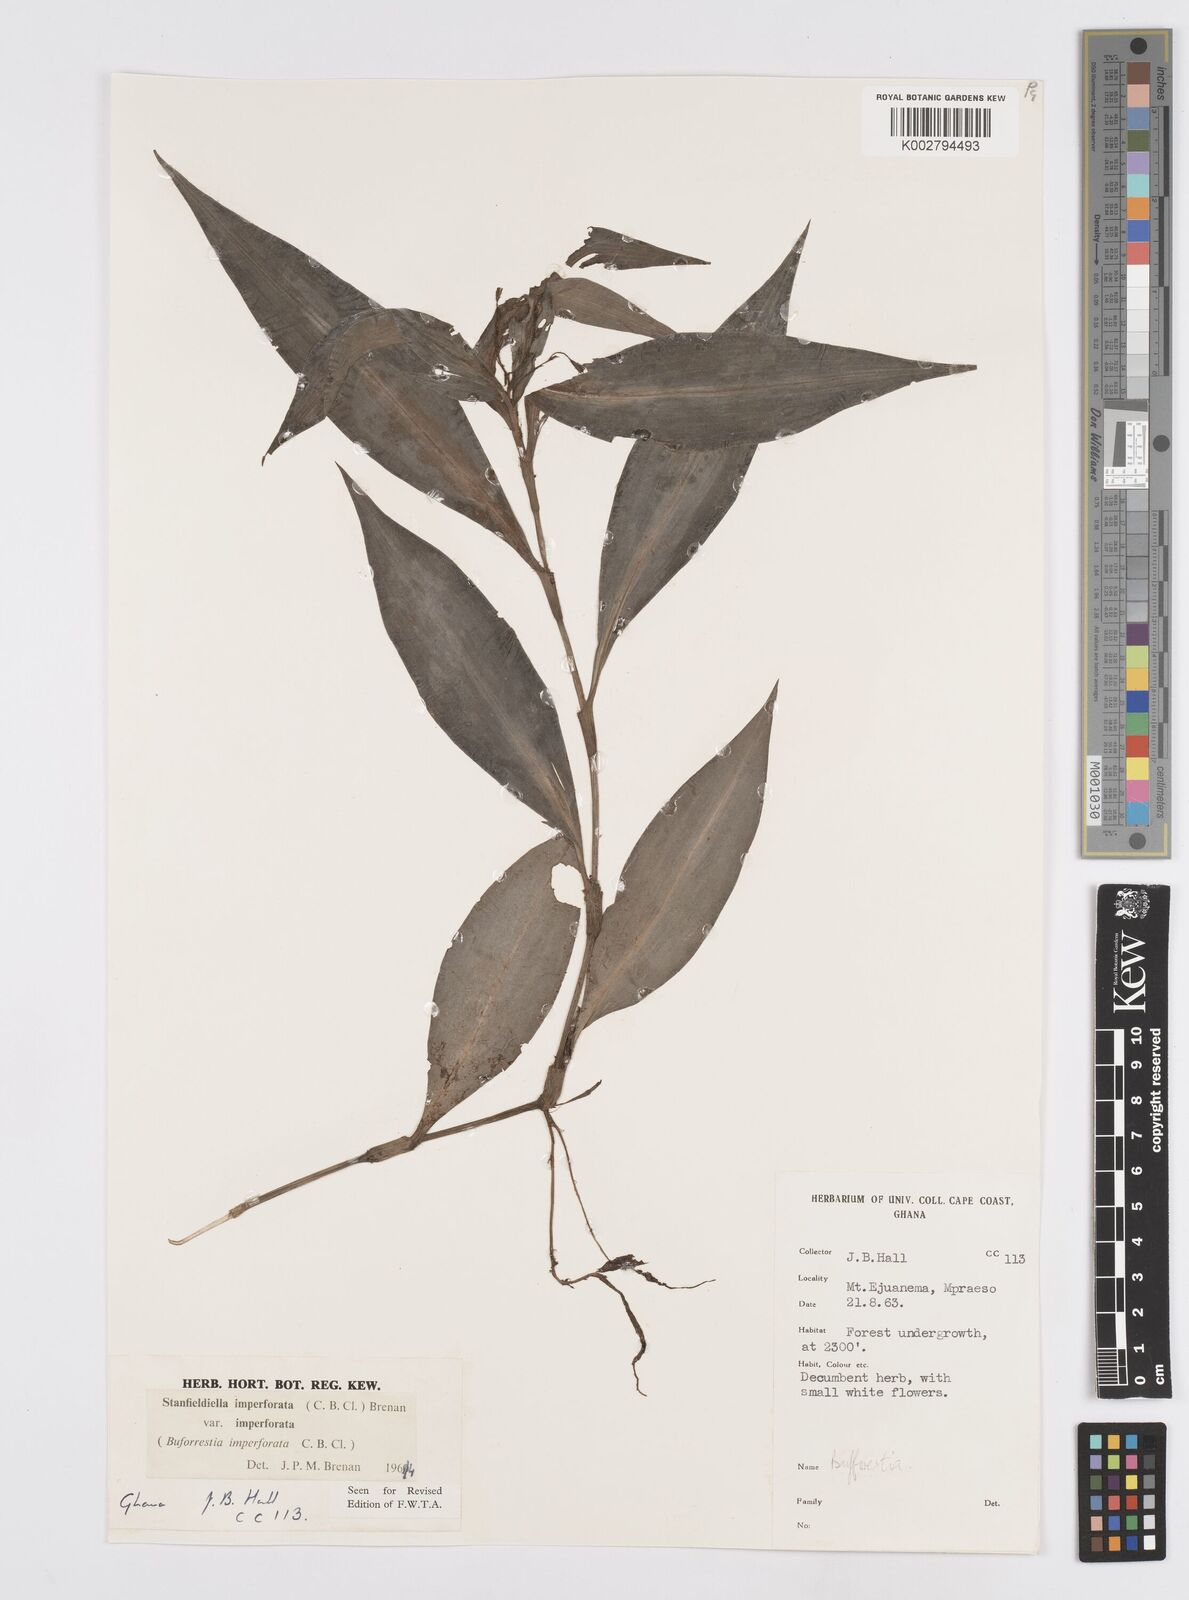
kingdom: Plantae
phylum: Tracheophyta
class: Liliopsida
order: Commelinales
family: Commelinaceae
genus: Stanfieldiella
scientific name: Stanfieldiella imperforata
